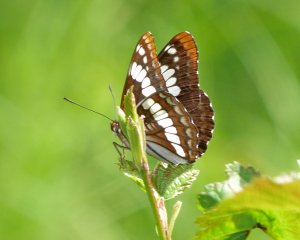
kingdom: Animalia
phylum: Arthropoda
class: Insecta
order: Lepidoptera
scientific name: Lepidoptera
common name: Butterflies
